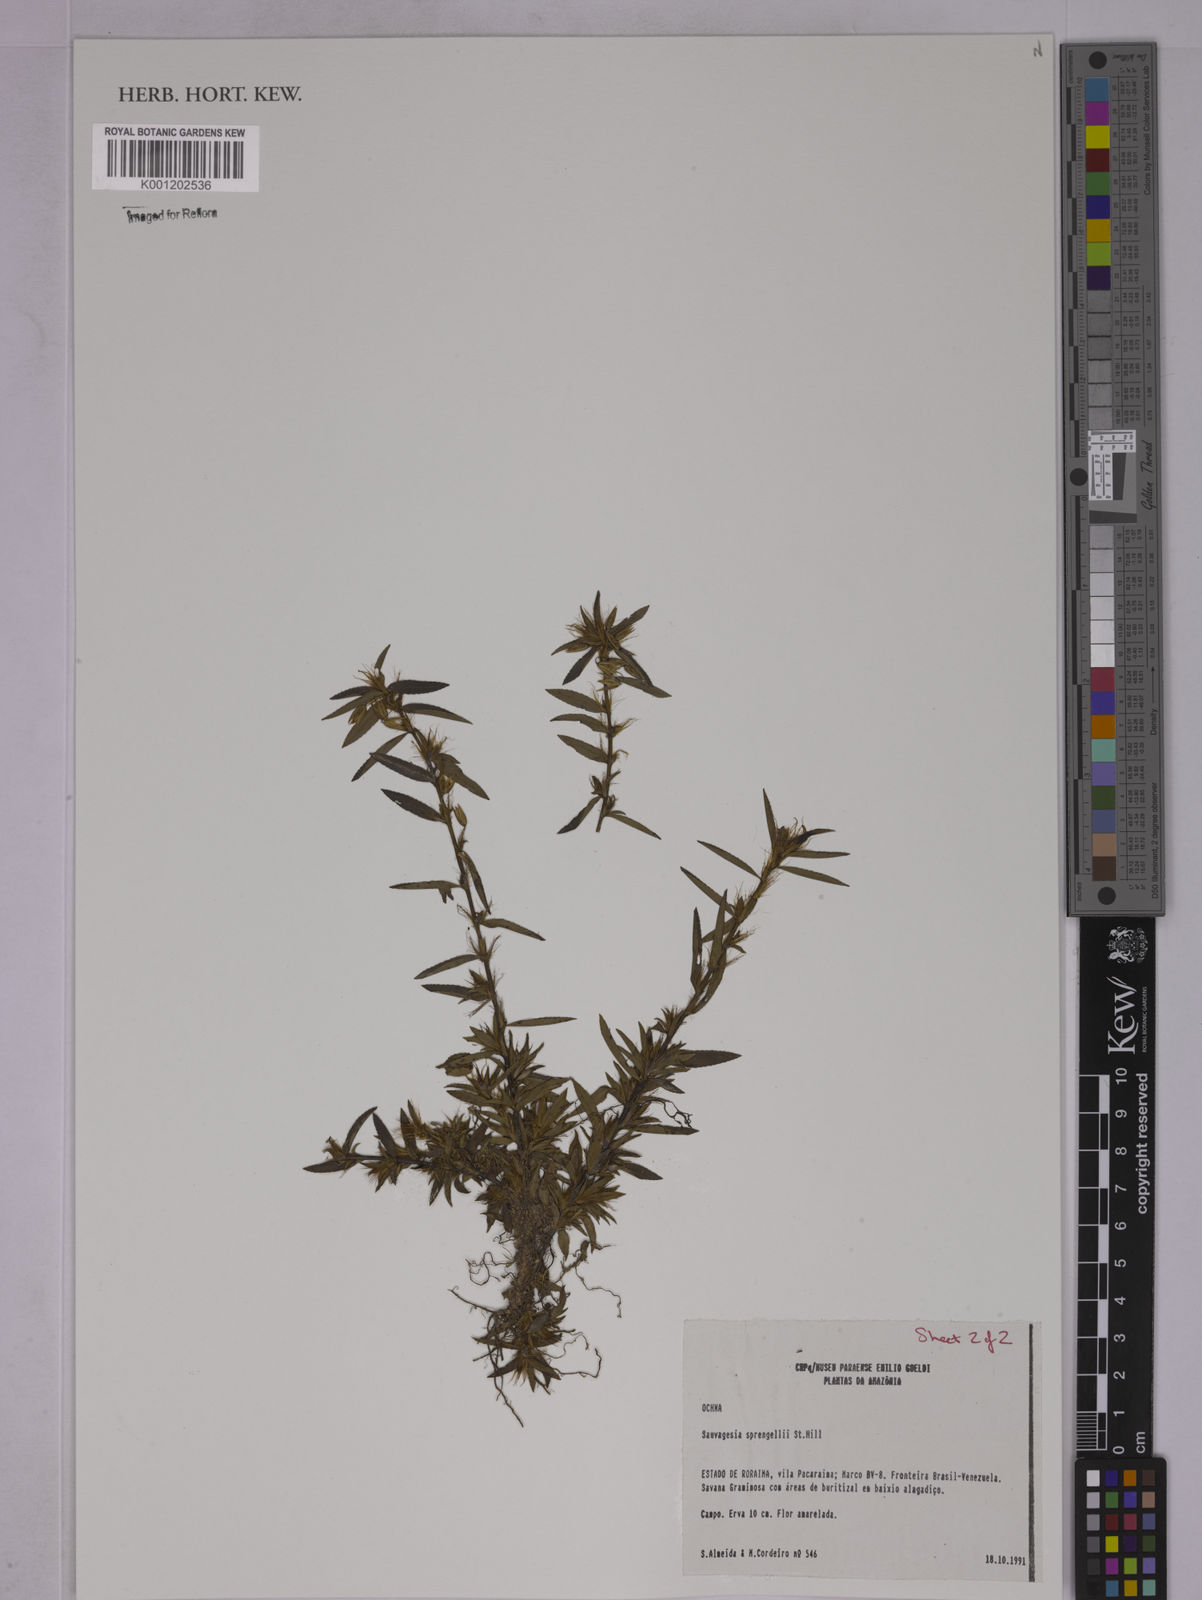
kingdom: Plantae
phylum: Tracheophyta
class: Magnoliopsida
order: Malpighiales
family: Ochnaceae
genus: Sauvagesia
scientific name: Sauvagesia rubiginosa
